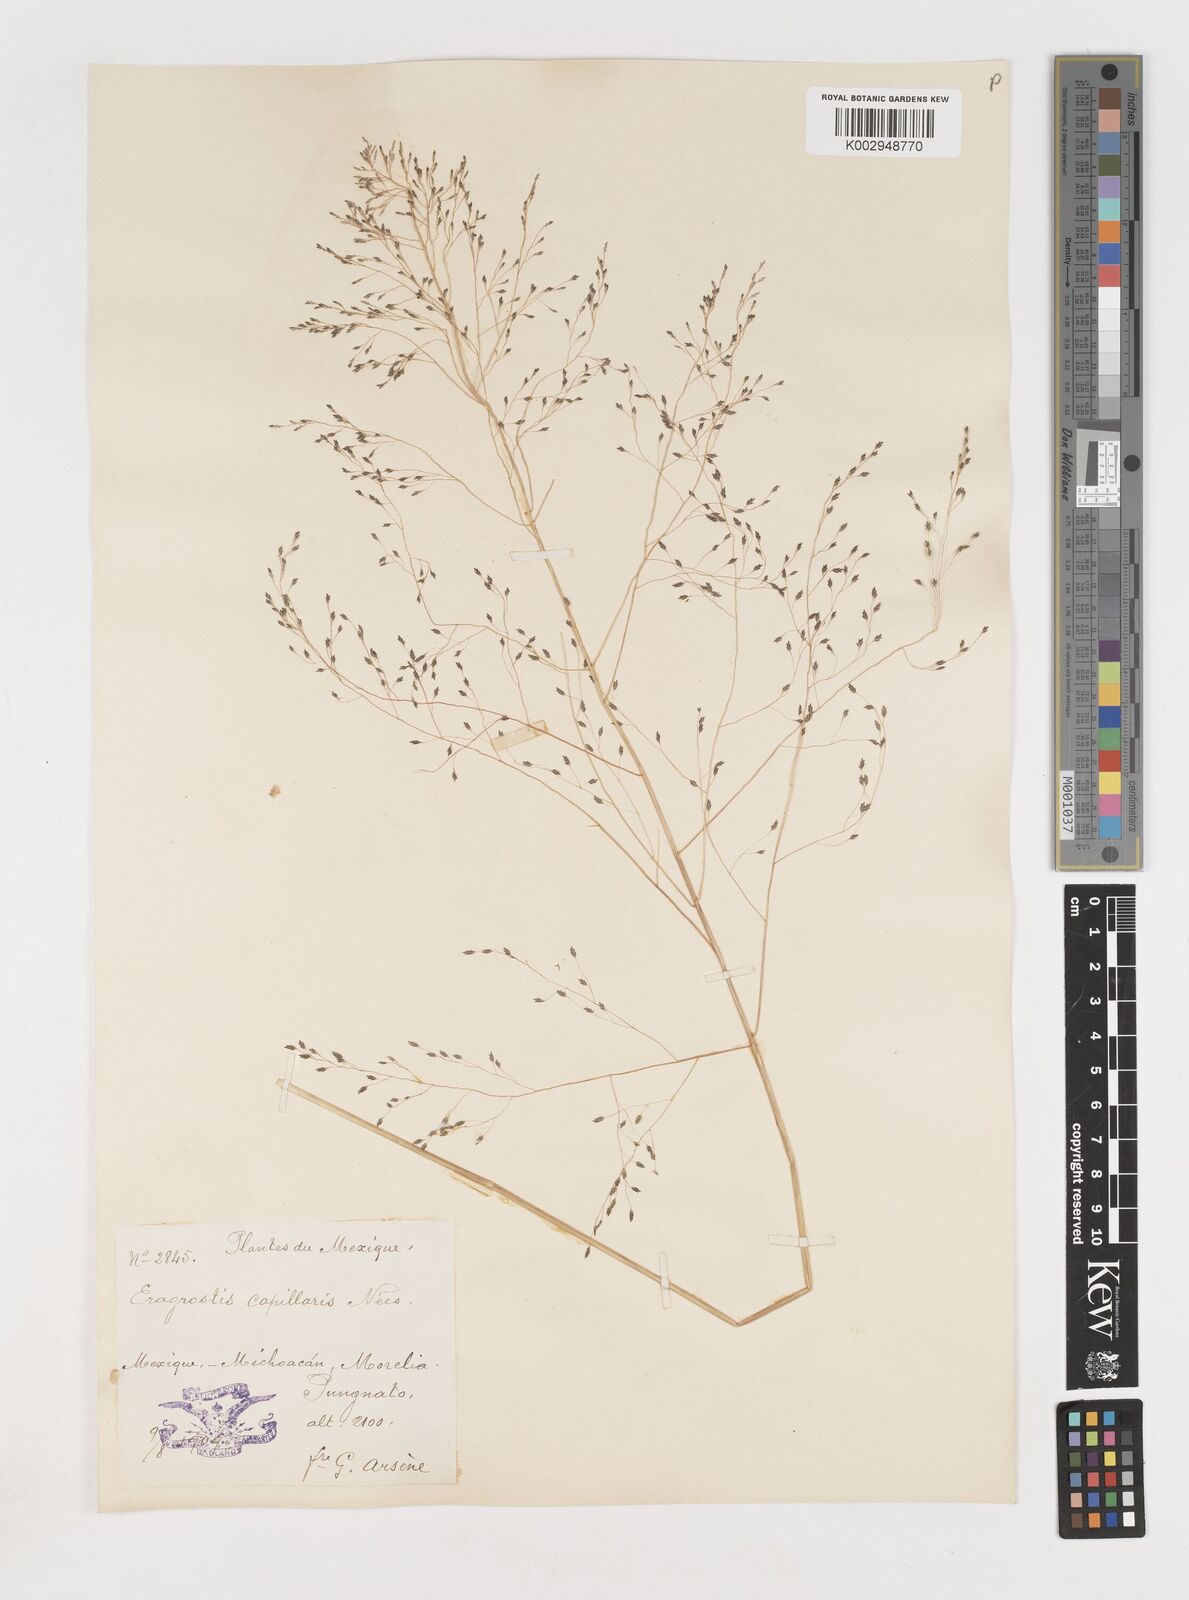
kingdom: Plantae
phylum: Tracheophyta
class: Liliopsida
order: Poales
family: Poaceae
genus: Eragrostis
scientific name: Eragrostis
